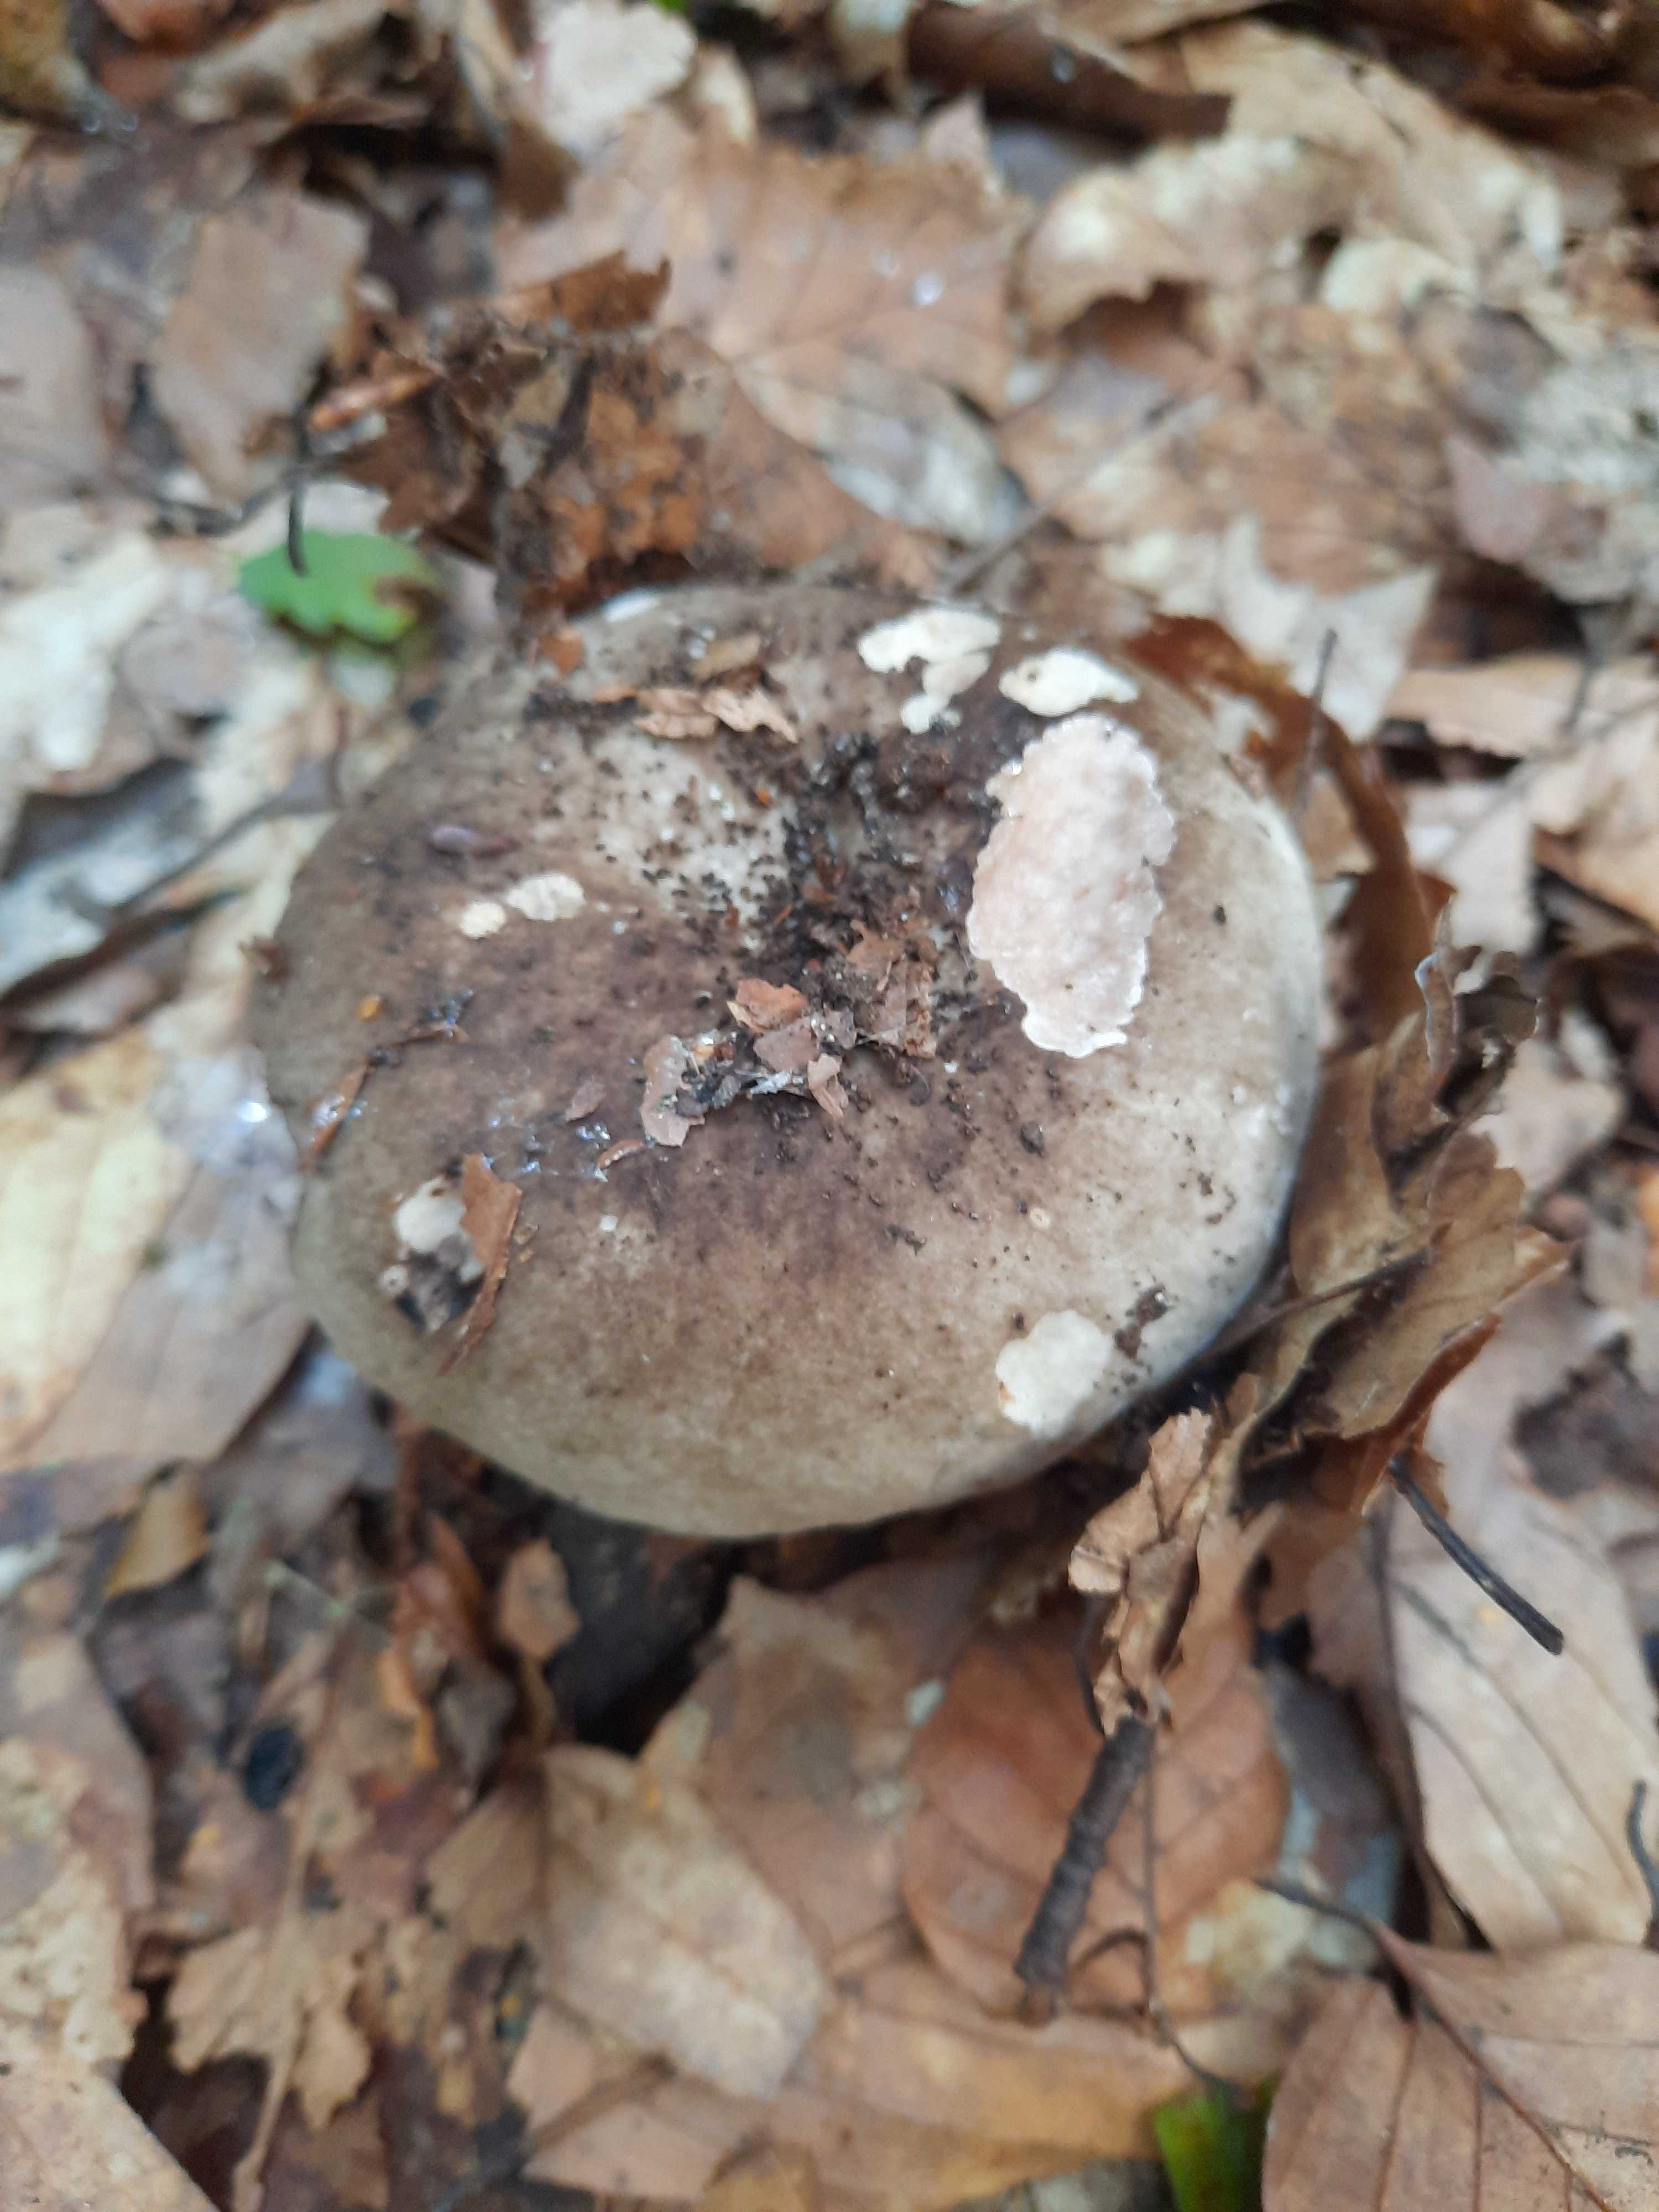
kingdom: Fungi
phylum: Basidiomycota
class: Agaricomycetes
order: Russulales
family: Russulaceae
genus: Russula
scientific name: Russula adusta
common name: sværtende skørhat
